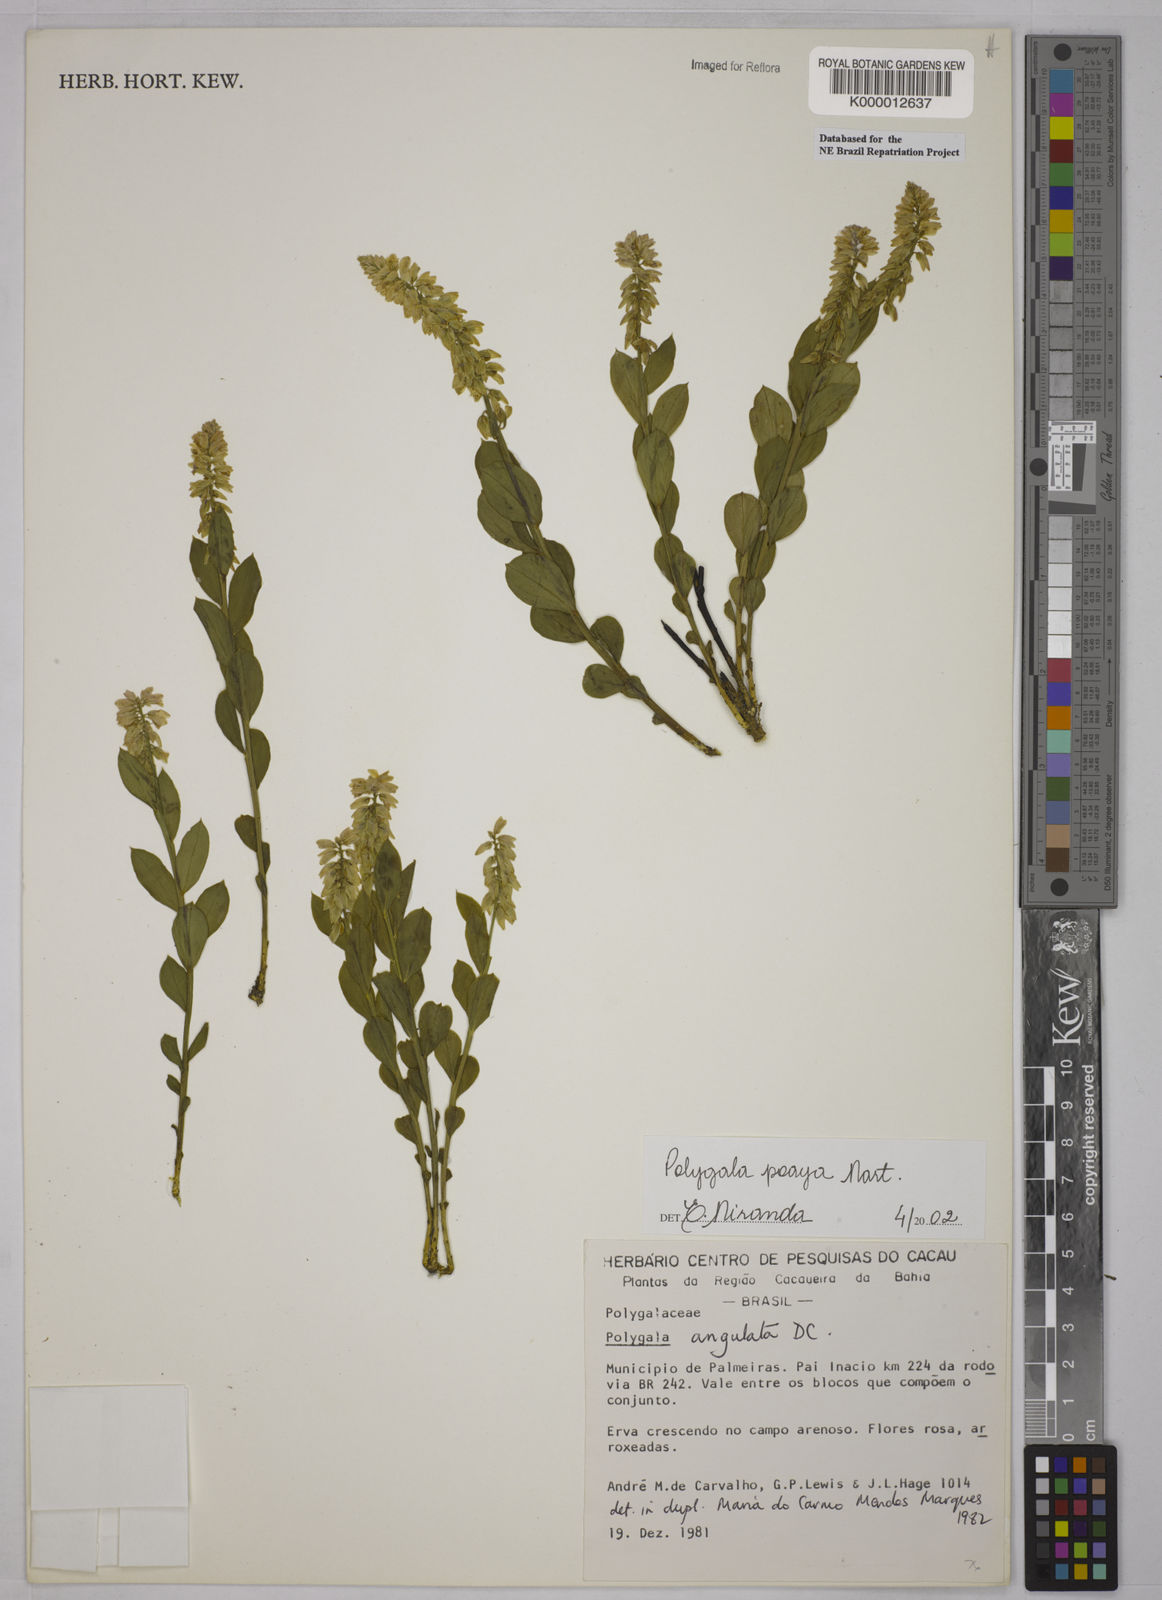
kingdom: Plantae
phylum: Tracheophyta
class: Magnoliopsida
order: Fabales
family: Polygalaceae
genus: Polygala
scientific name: Polygala poaya
